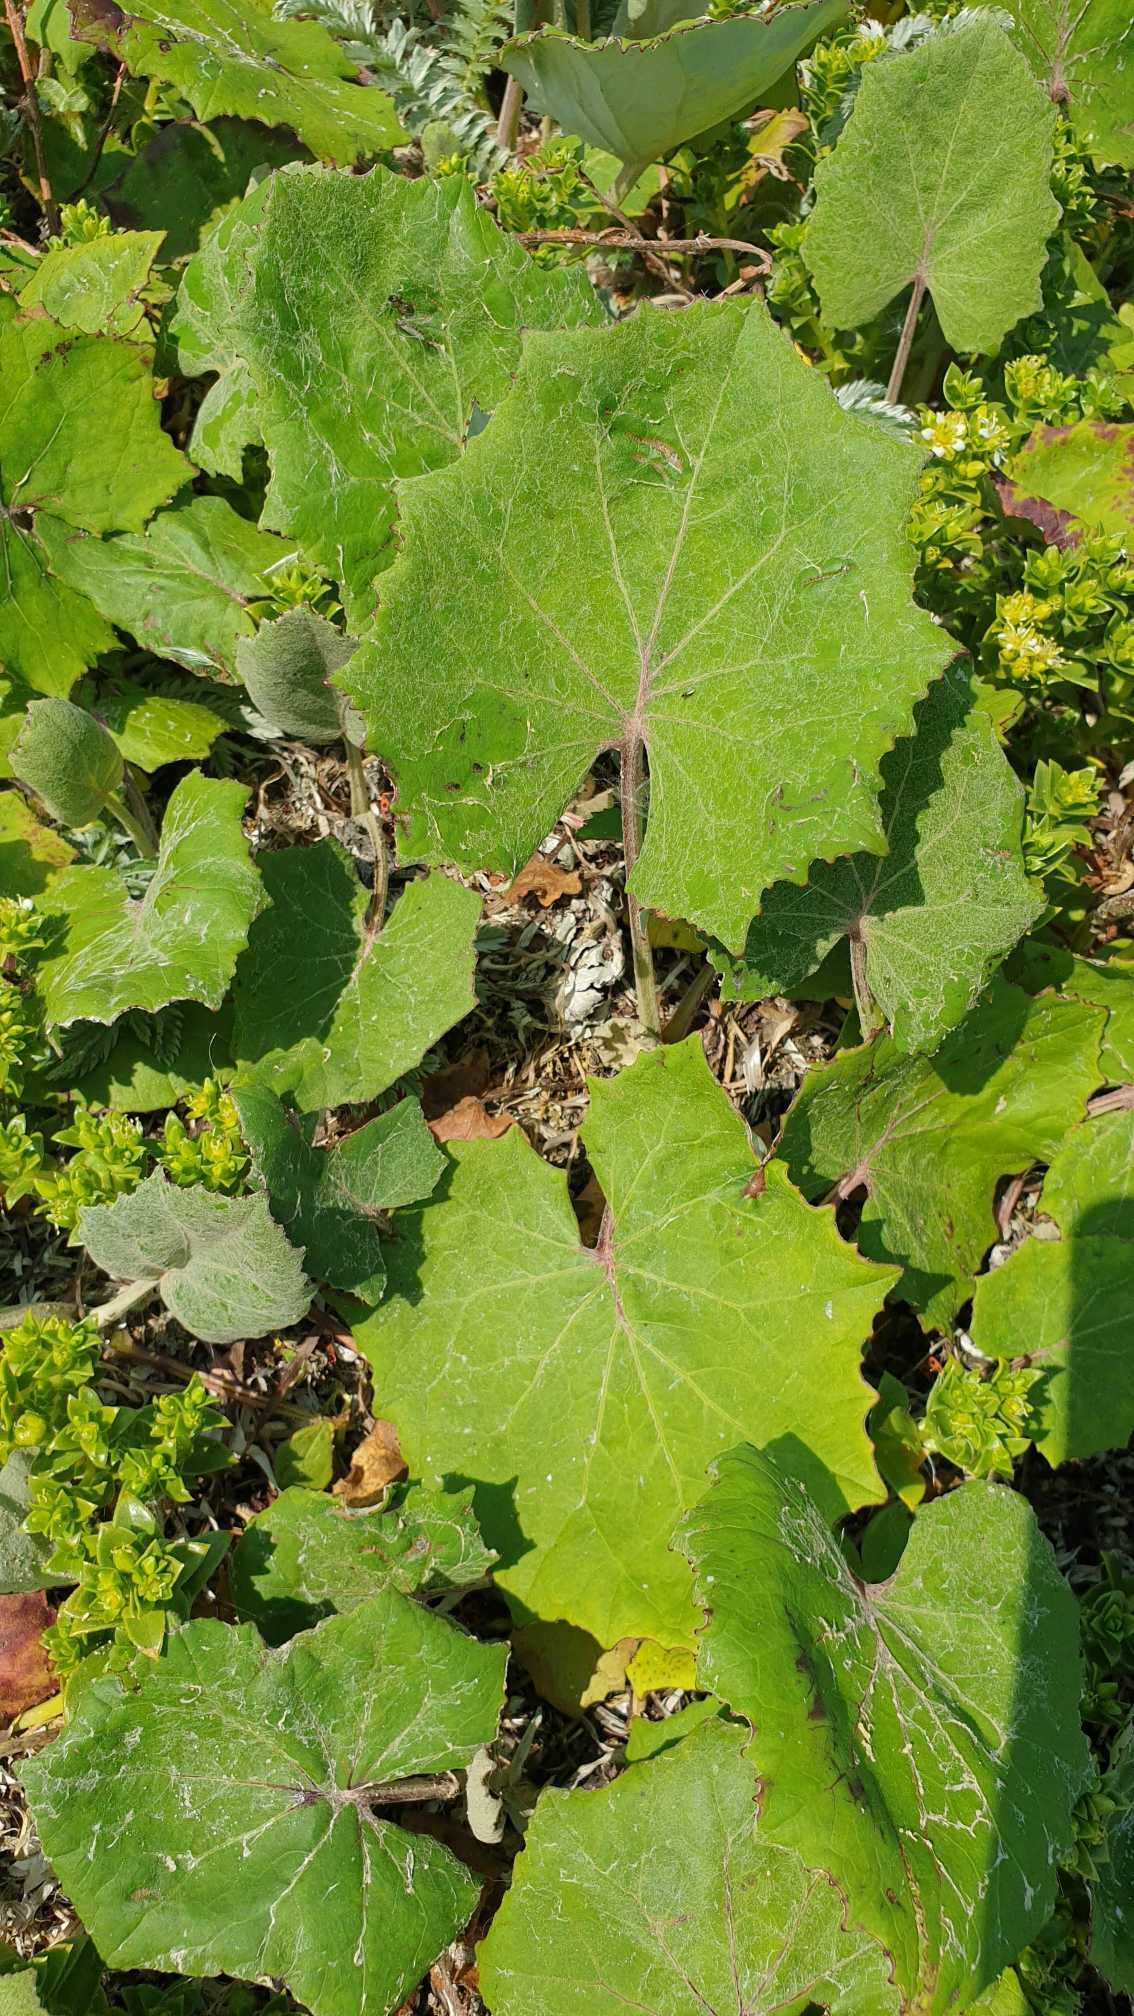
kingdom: Plantae
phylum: Tracheophyta
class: Magnoliopsida
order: Asterales
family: Asteraceae
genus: Tussilago
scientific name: Tussilago farfara
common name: Følfod
